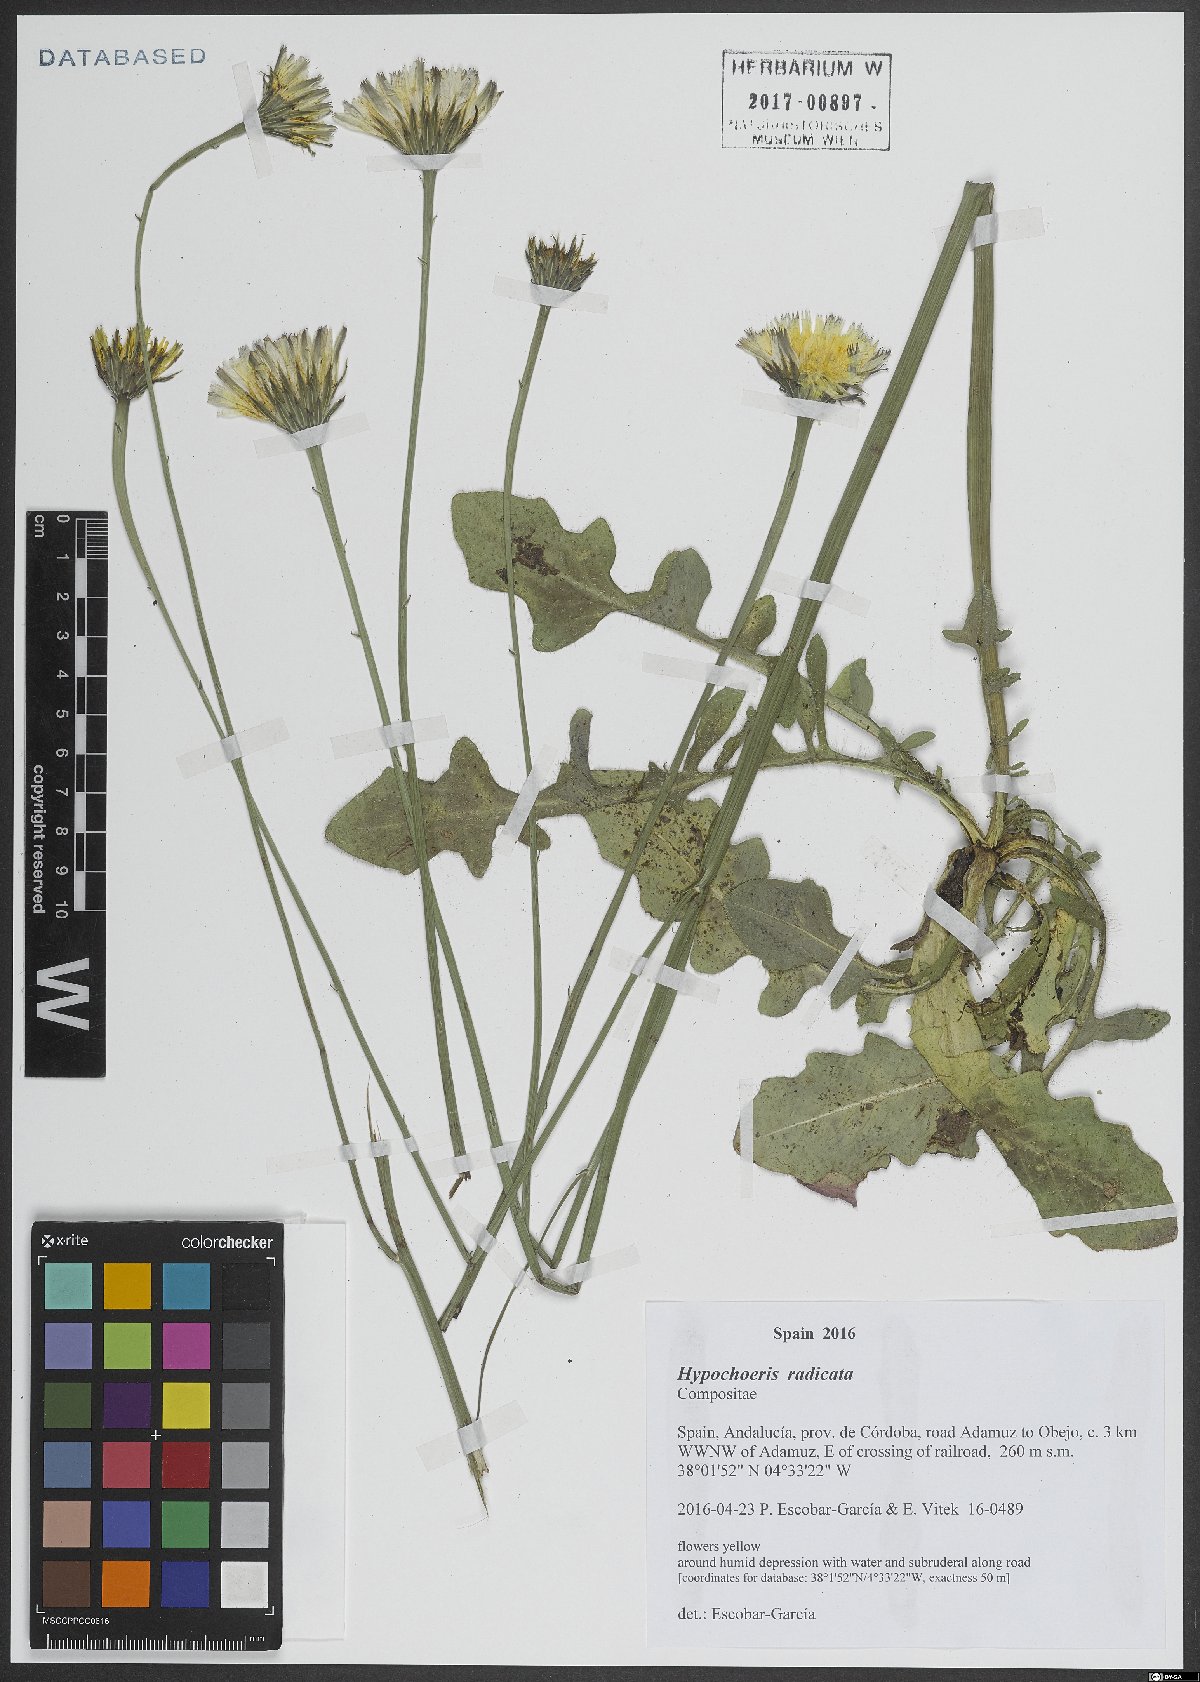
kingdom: Plantae
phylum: Tracheophyta
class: Magnoliopsida
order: Asterales
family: Asteraceae
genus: Hypochaeris
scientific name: Hypochaeris radicata
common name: Flatweed
